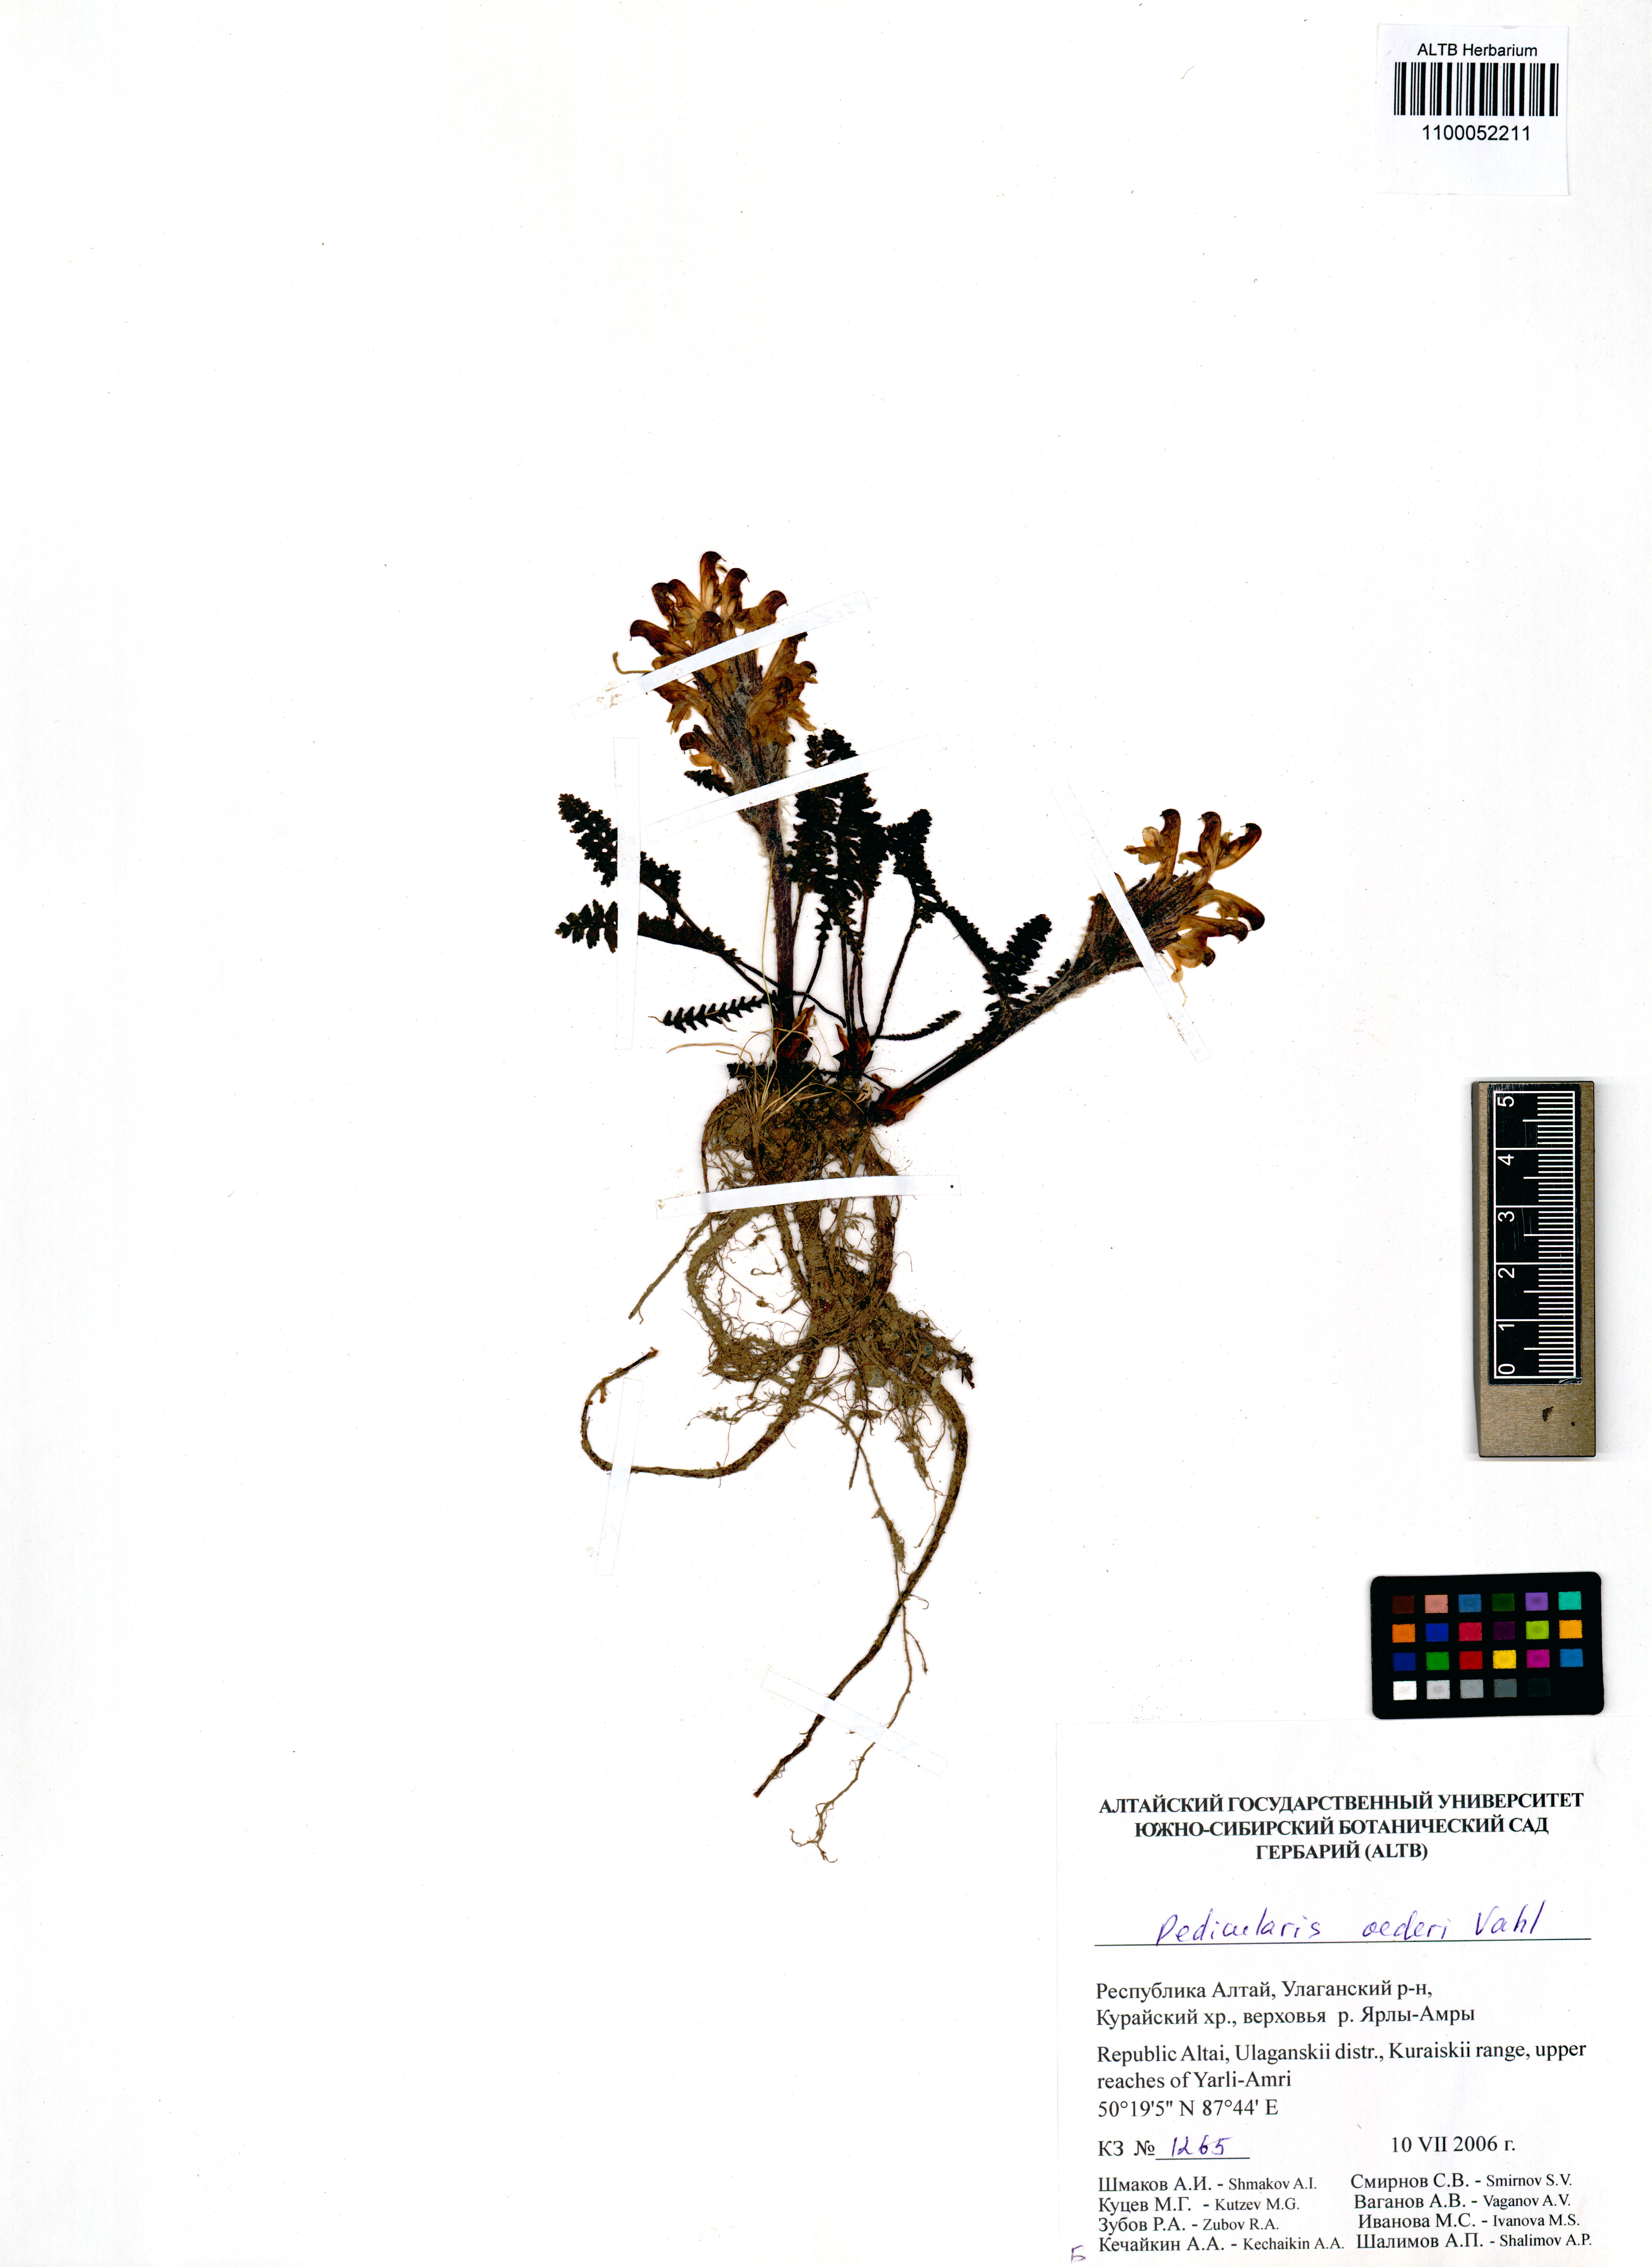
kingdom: Plantae
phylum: Tracheophyta
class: Magnoliopsida
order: Lamiales
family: Orobanchaceae
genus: Pedicularis
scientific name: Pedicularis oederi
